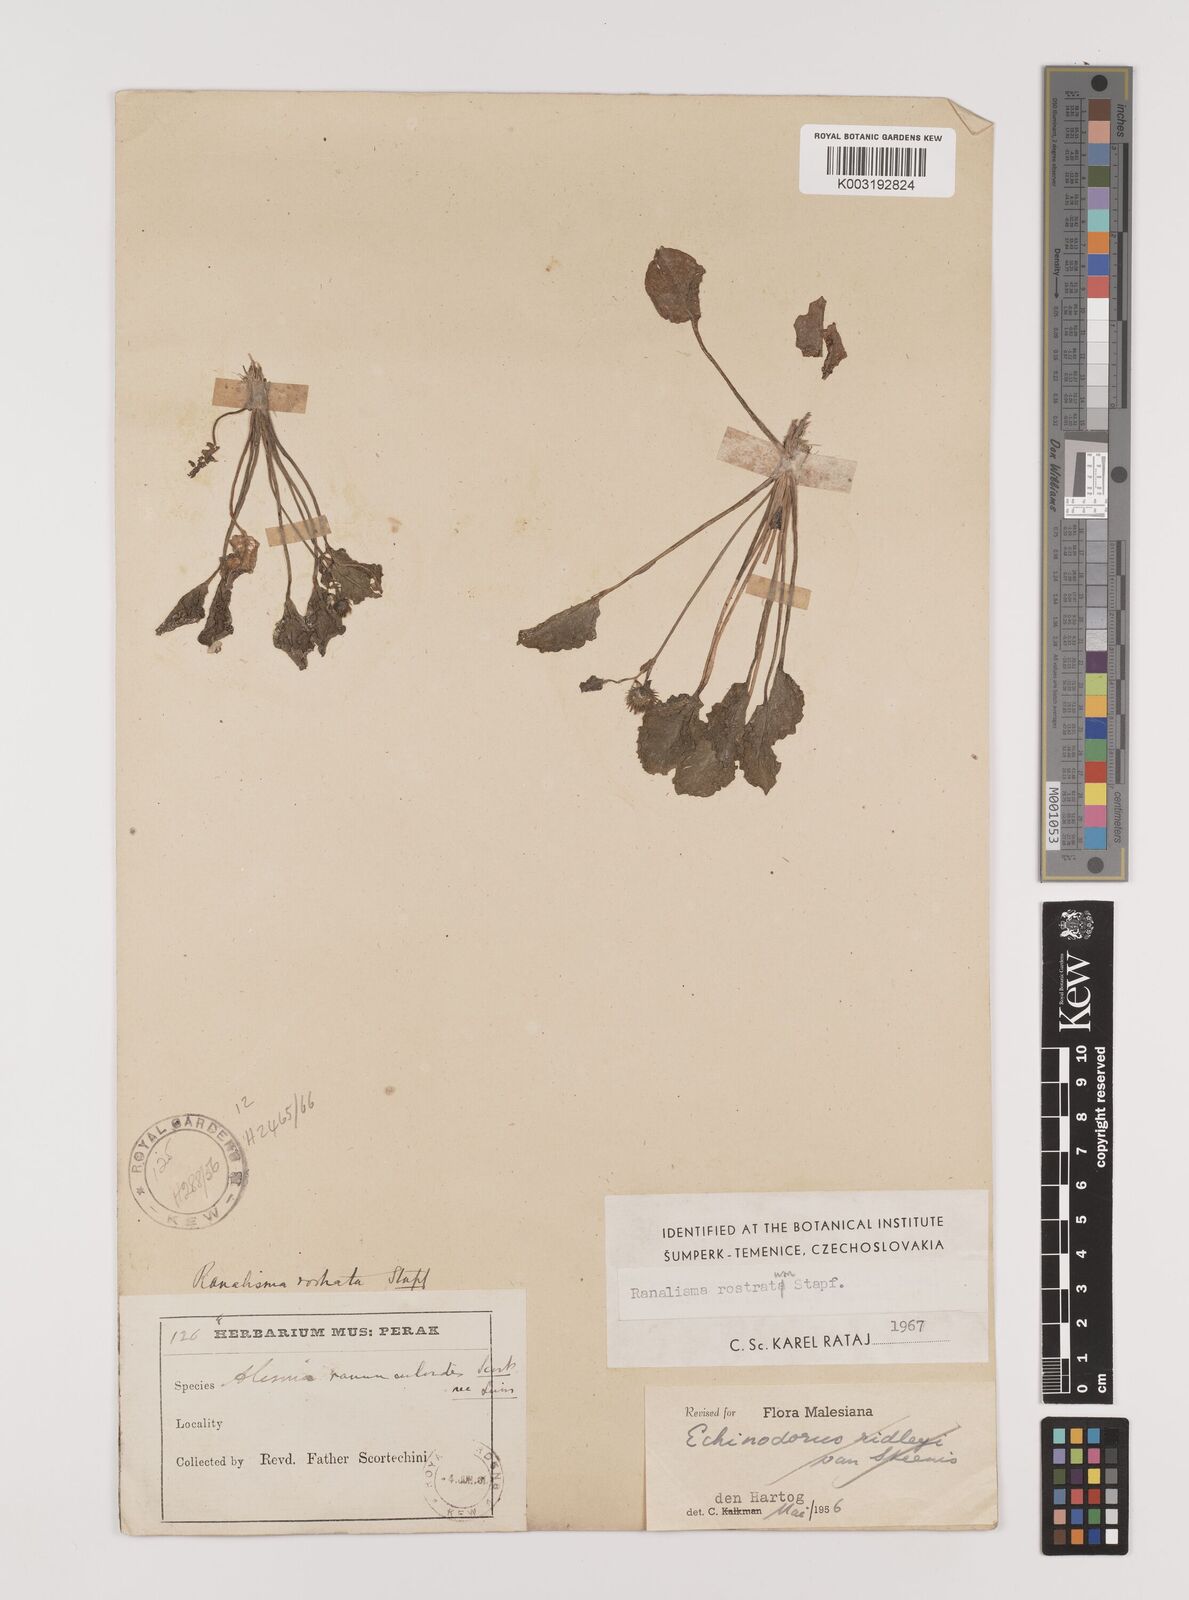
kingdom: Plantae
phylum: Tracheophyta
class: Liliopsida
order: Alismatales
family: Alismataceae
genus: Ranalisma
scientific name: Ranalisma rostrata
